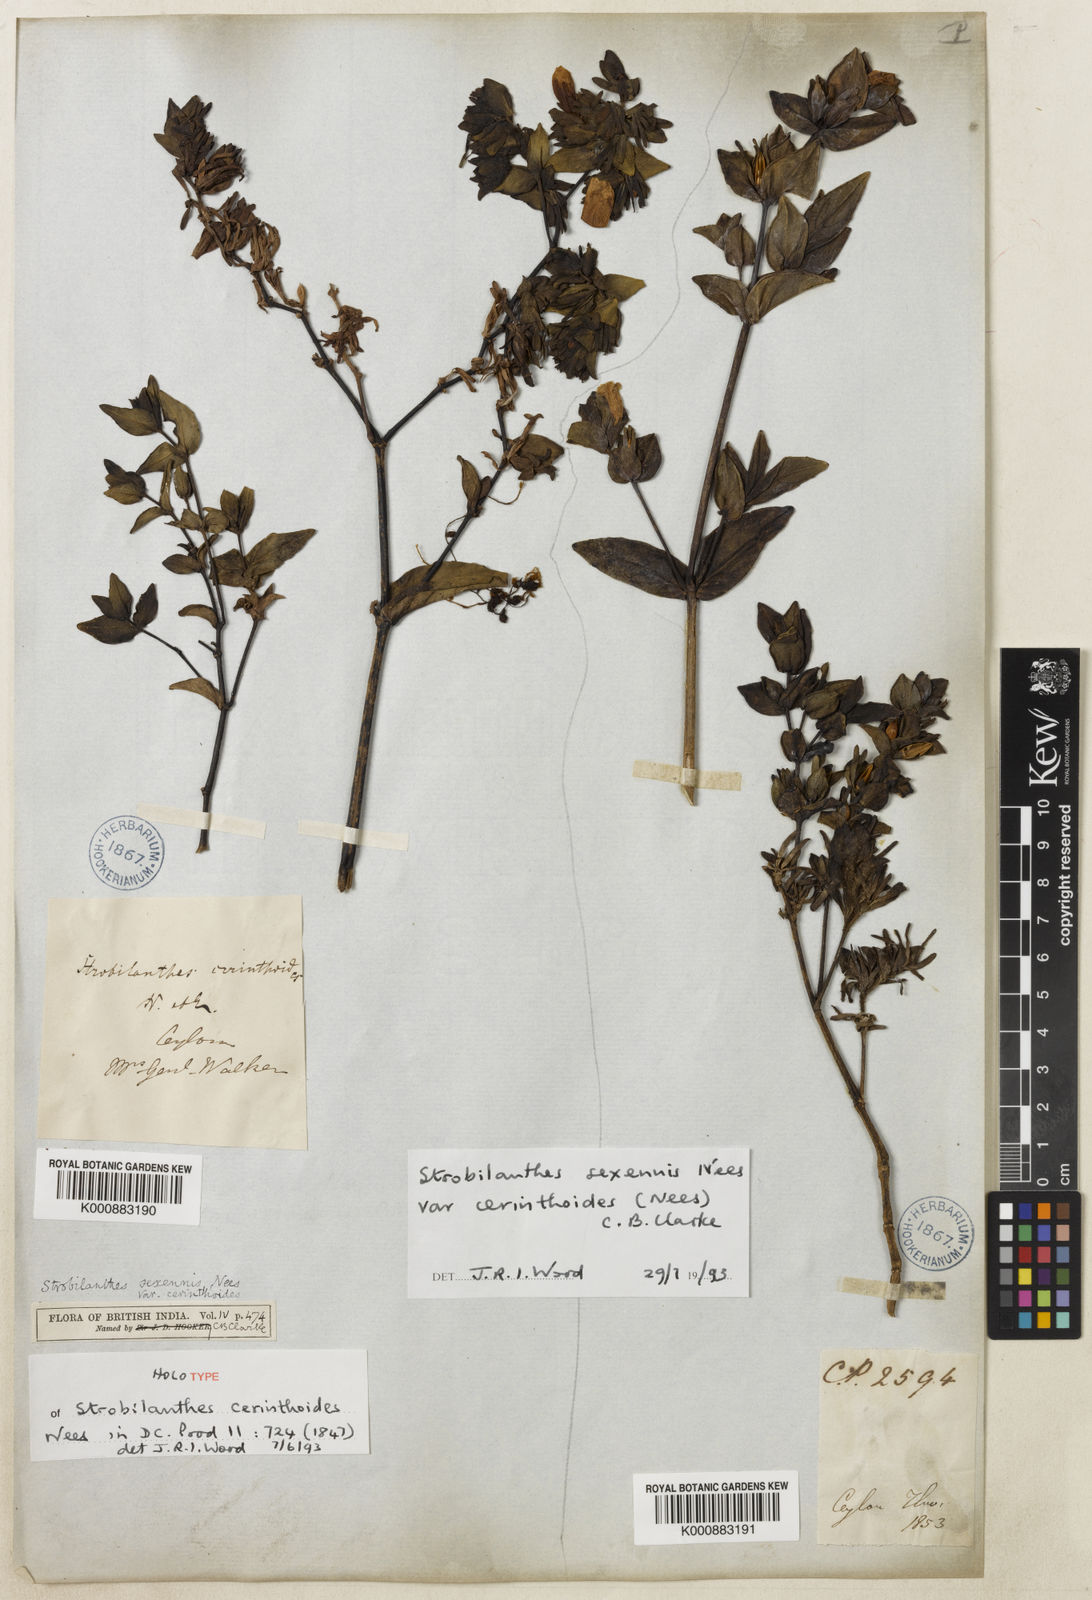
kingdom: Plantae
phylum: Tracheophyta
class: Magnoliopsida
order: Lamiales
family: Acanthaceae
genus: Strobilanthes
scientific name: Strobilanthes sexennis
